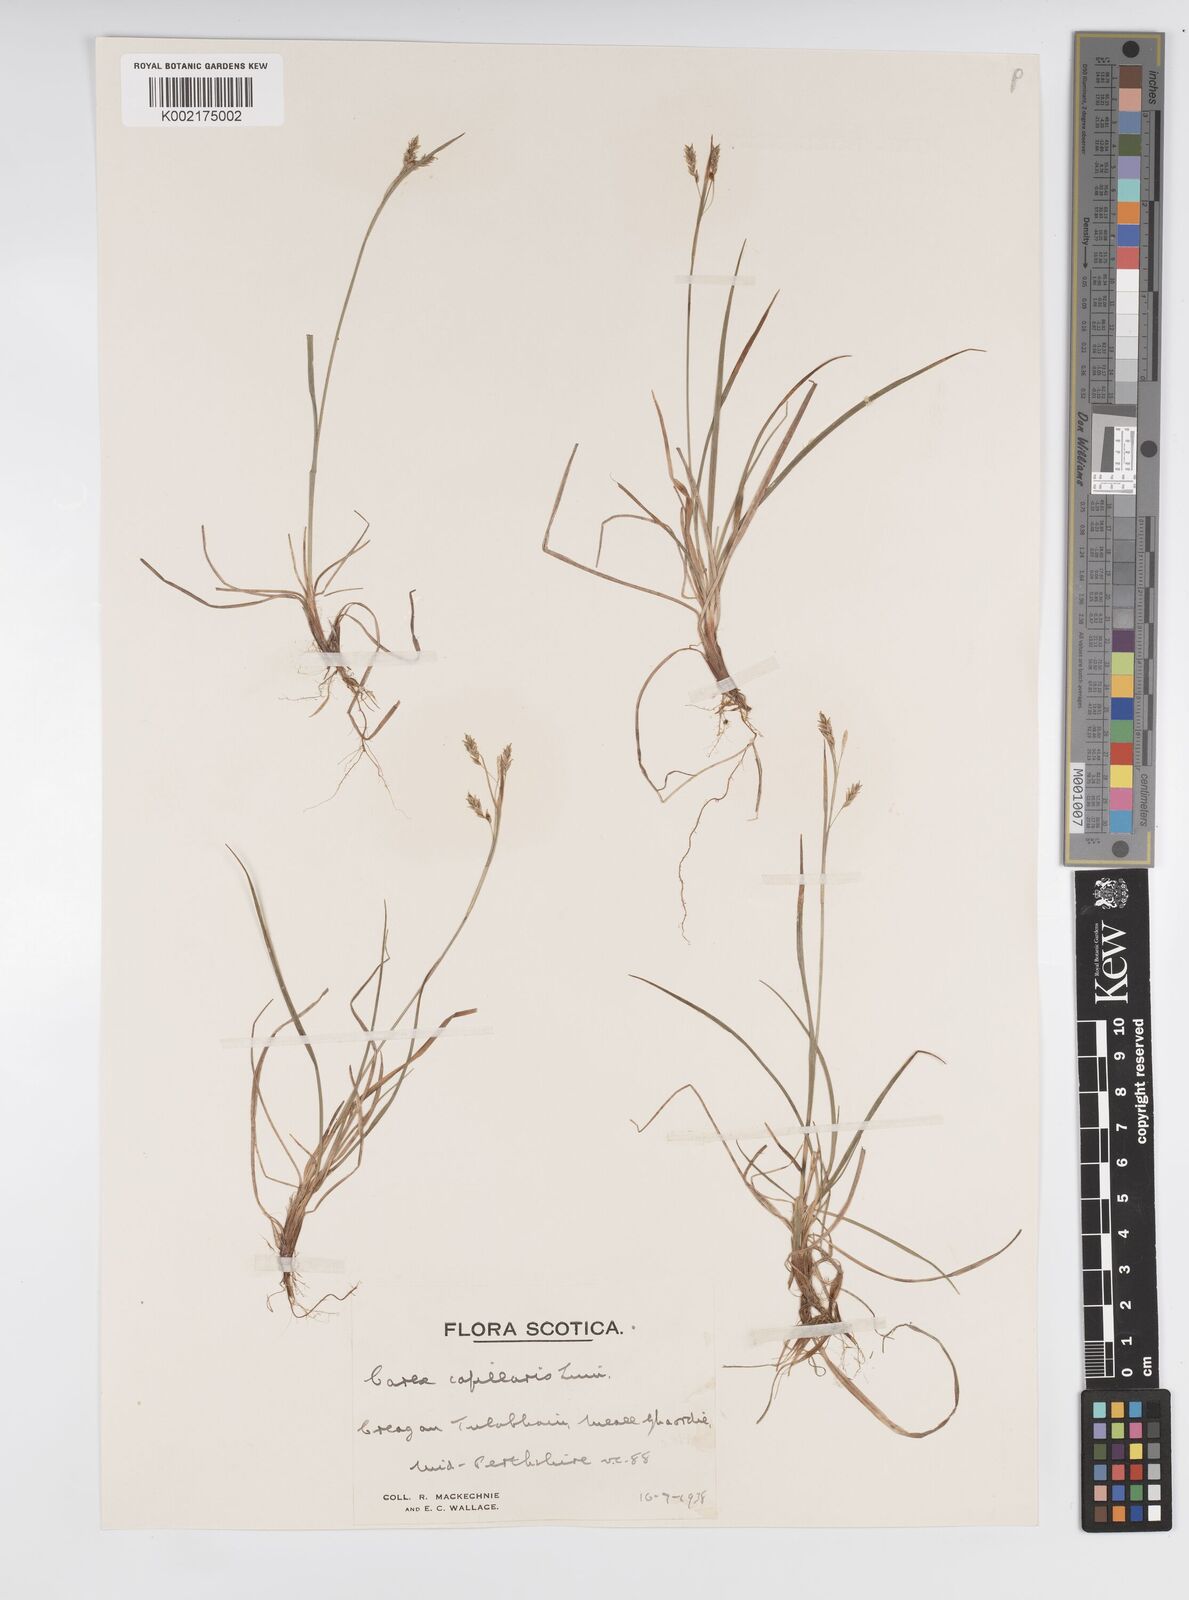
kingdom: Plantae
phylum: Tracheophyta
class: Liliopsida
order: Poales
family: Cyperaceae
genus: Carex
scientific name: Carex capillaris
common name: Hair sedge
